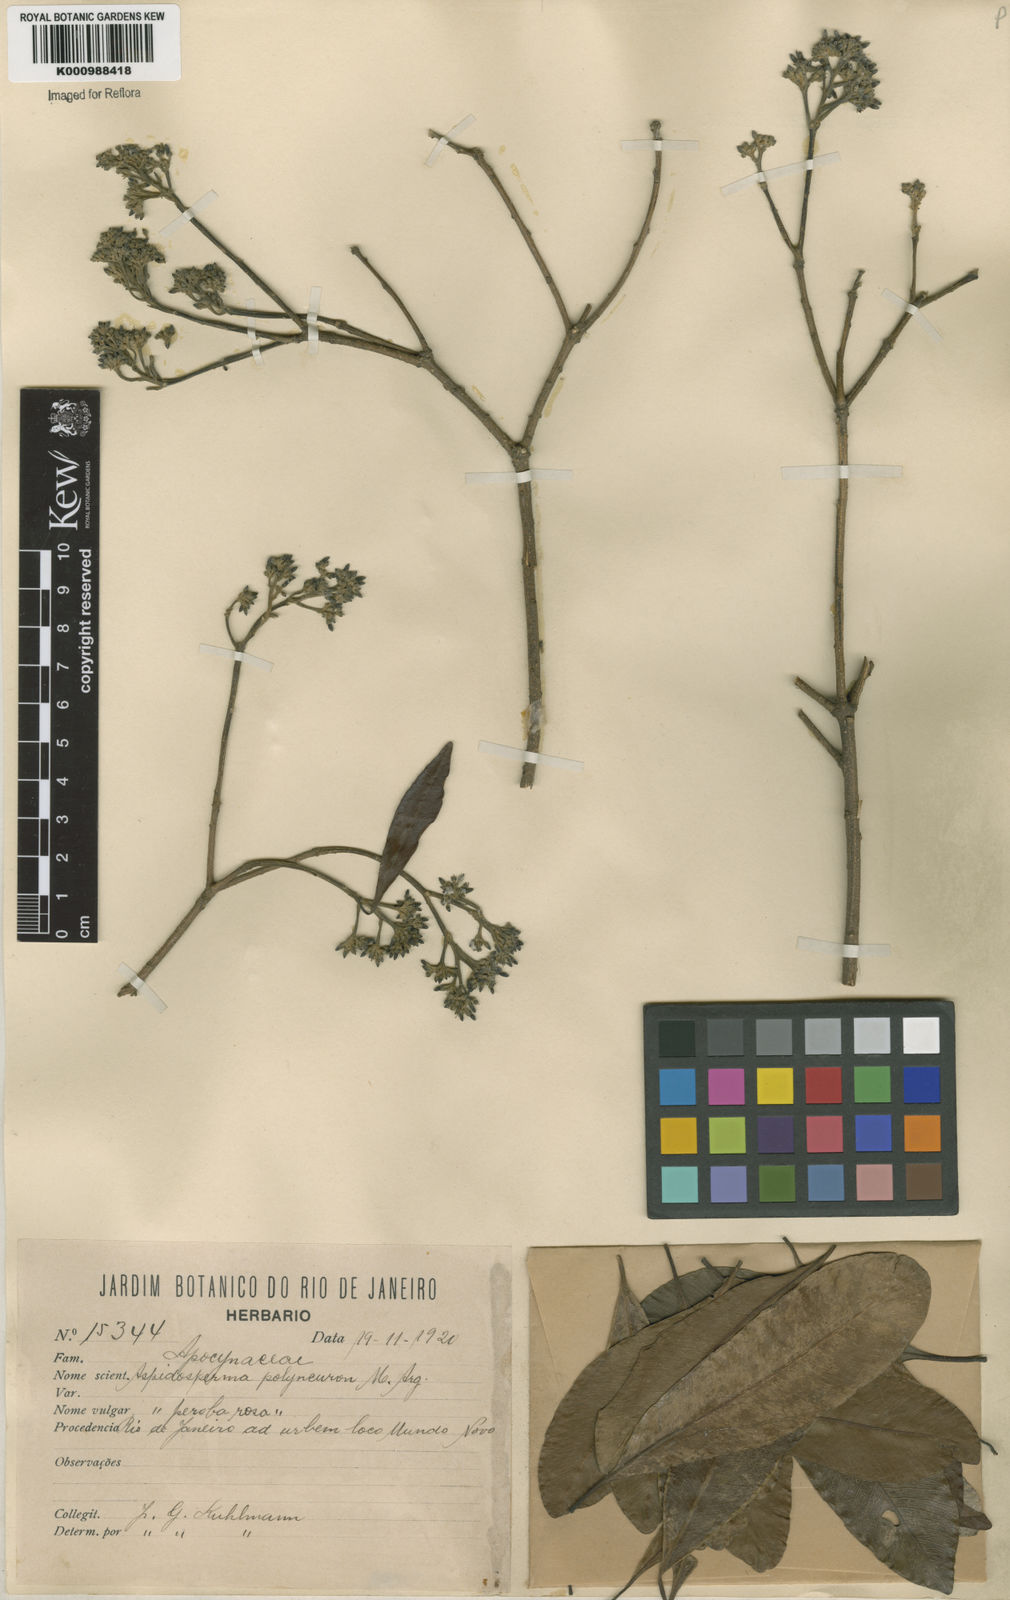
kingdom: Plantae
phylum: Tracheophyta
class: Magnoliopsida
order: Gentianales
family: Apocynaceae
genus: Aspidosperma
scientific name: Aspidosperma
